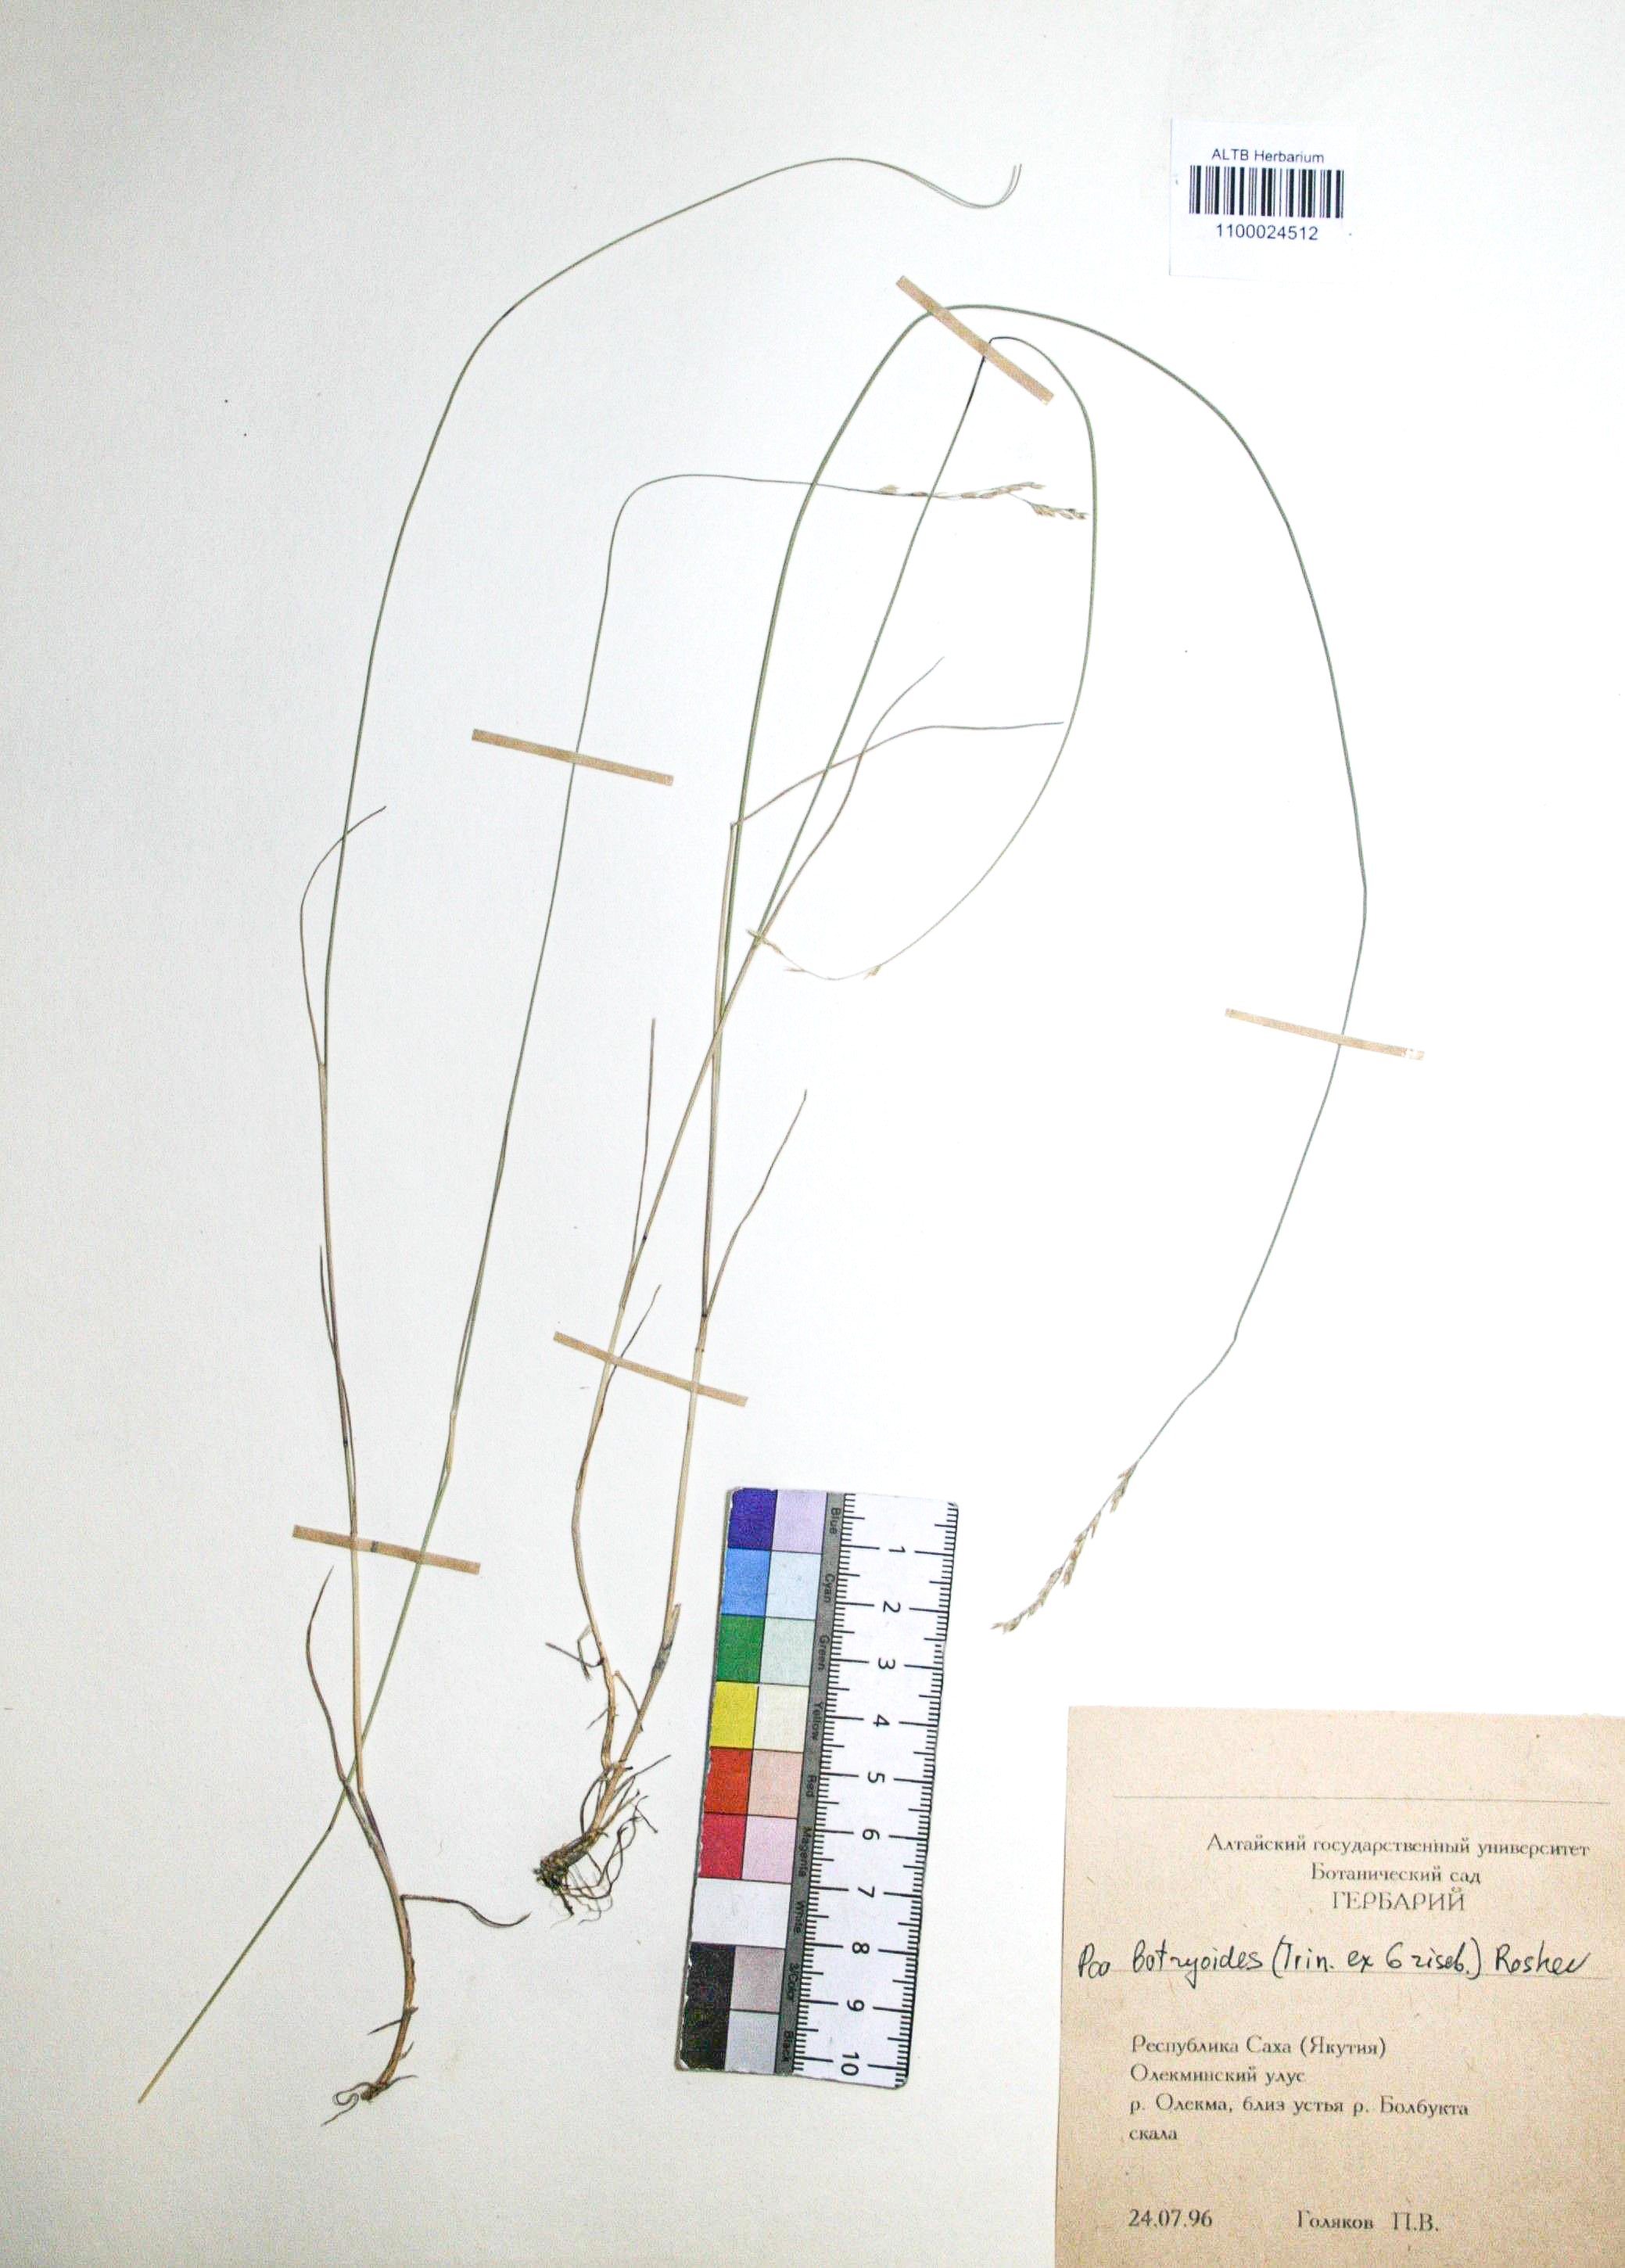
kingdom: Plantae
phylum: Tracheophyta
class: Liliopsida
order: Poales
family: Poaceae
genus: Poa
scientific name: Poa attenuata
